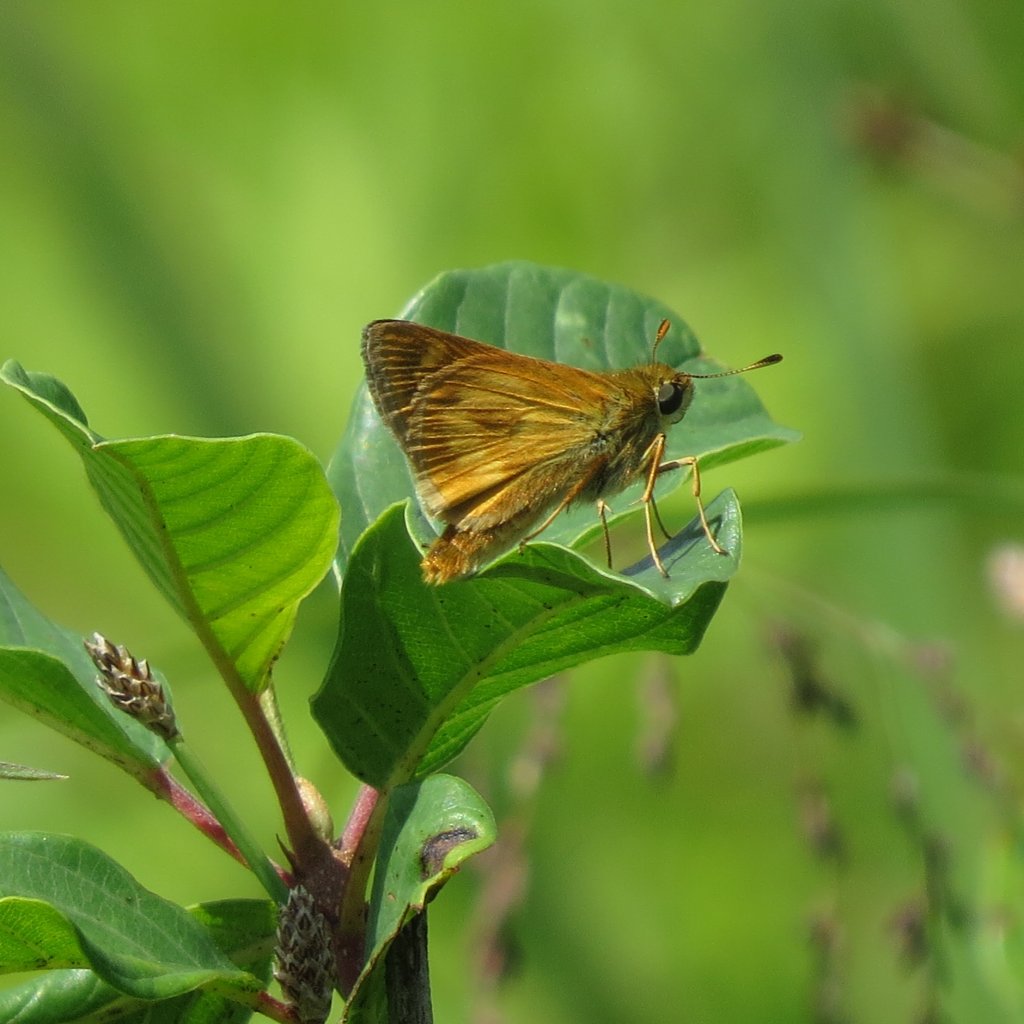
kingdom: Animalia
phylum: Arthropoda
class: Insecta
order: Lepidoptera
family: Hesperiidae
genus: Polites
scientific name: Polites
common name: Long Dash Skipper
